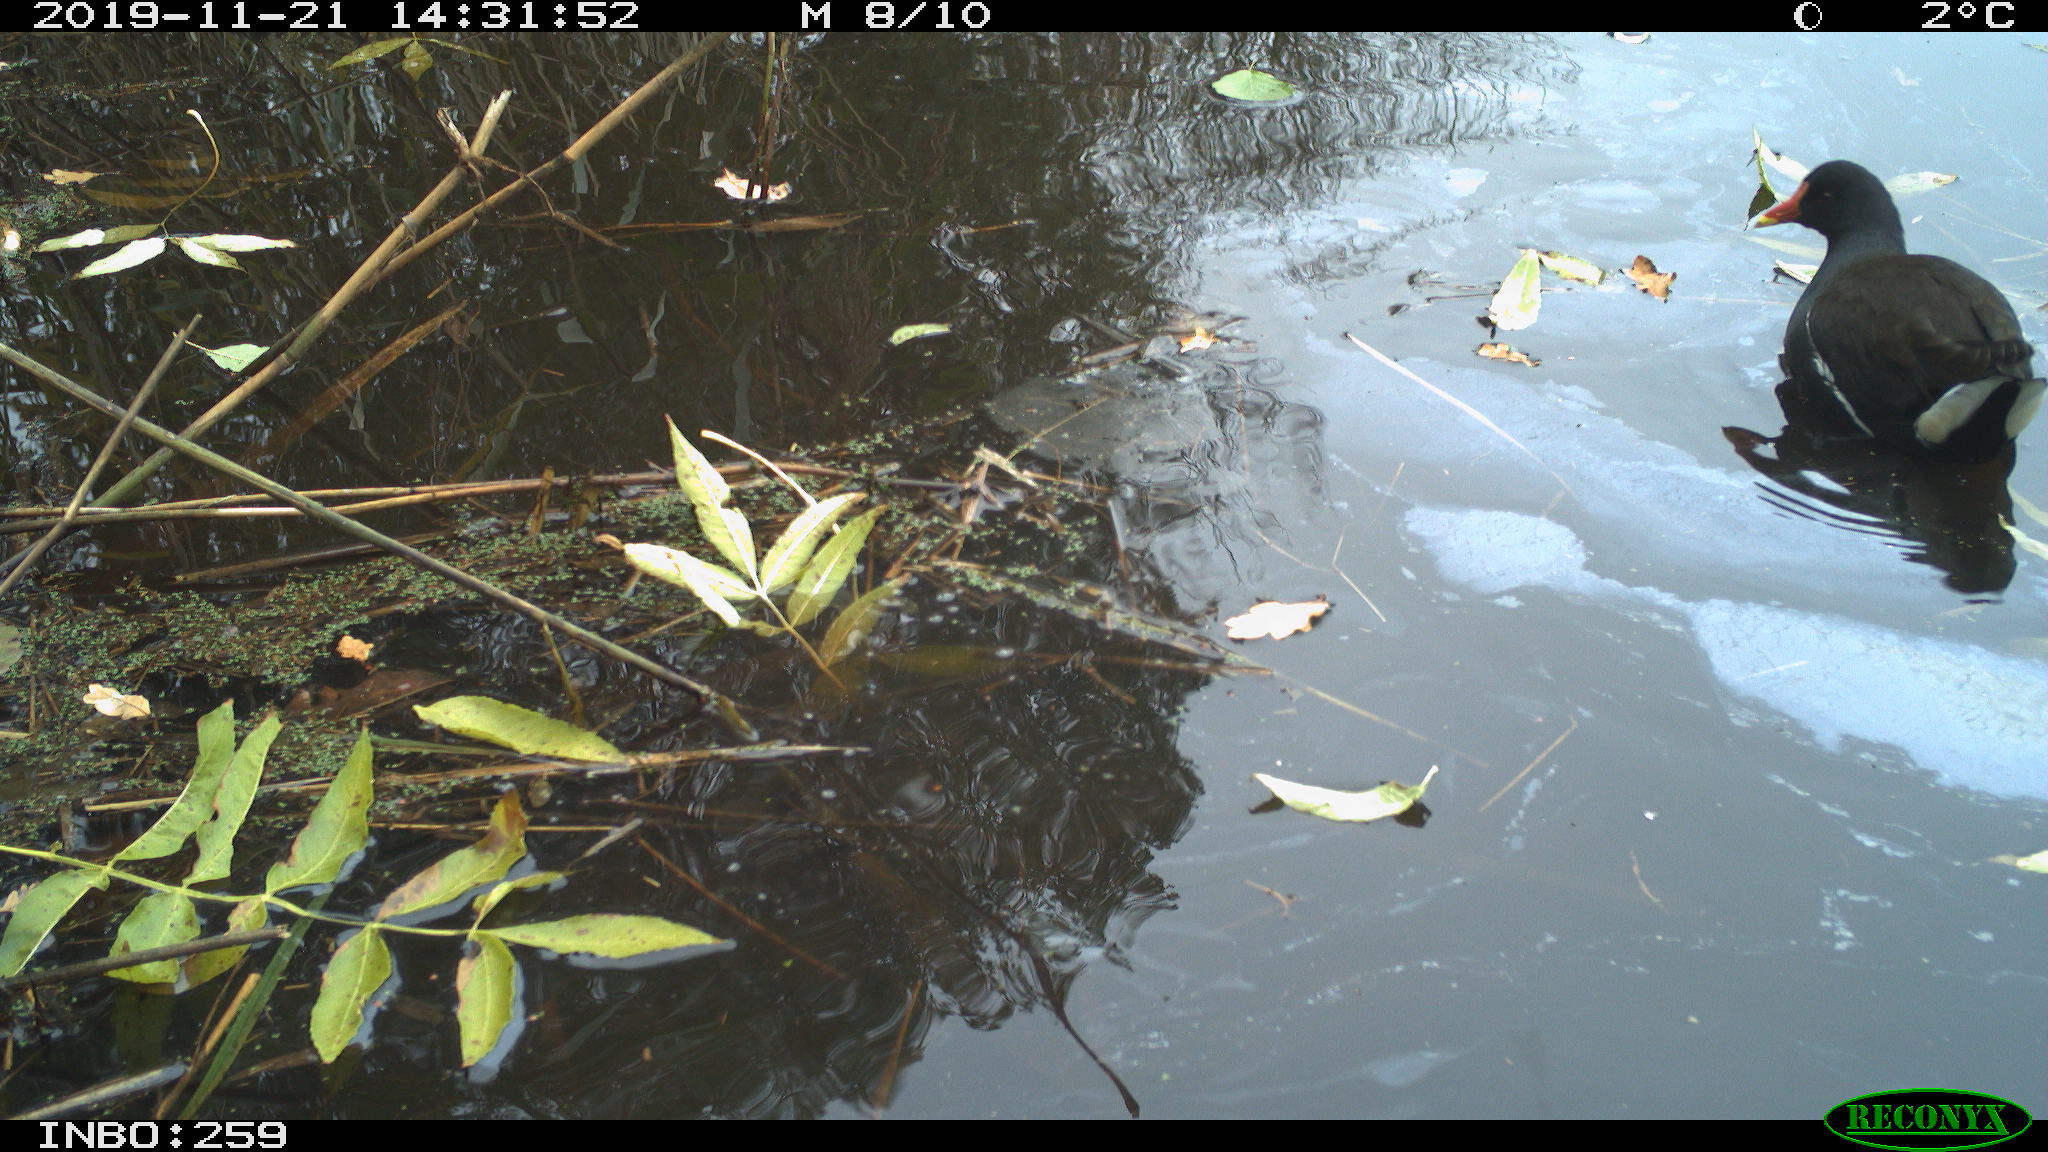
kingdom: Animalia
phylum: Chordata
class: Aves
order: Gruiformes
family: Rallidae
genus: Gallinula
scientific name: Gallinula chloropus
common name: Common moorhen
